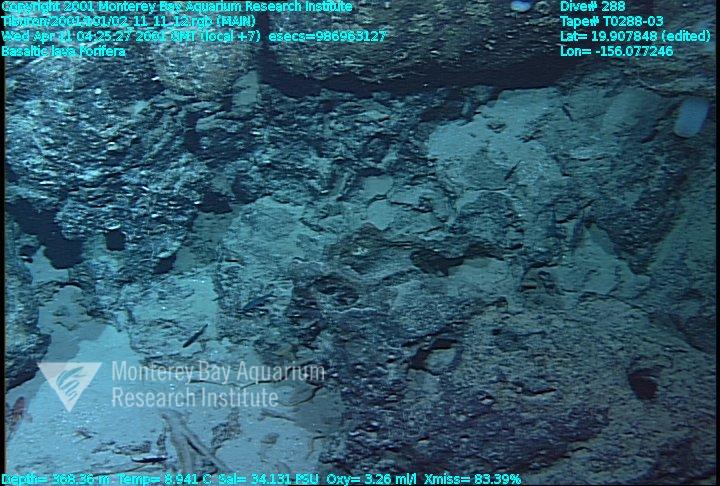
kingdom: Animalia
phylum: Porifera
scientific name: Porifera
